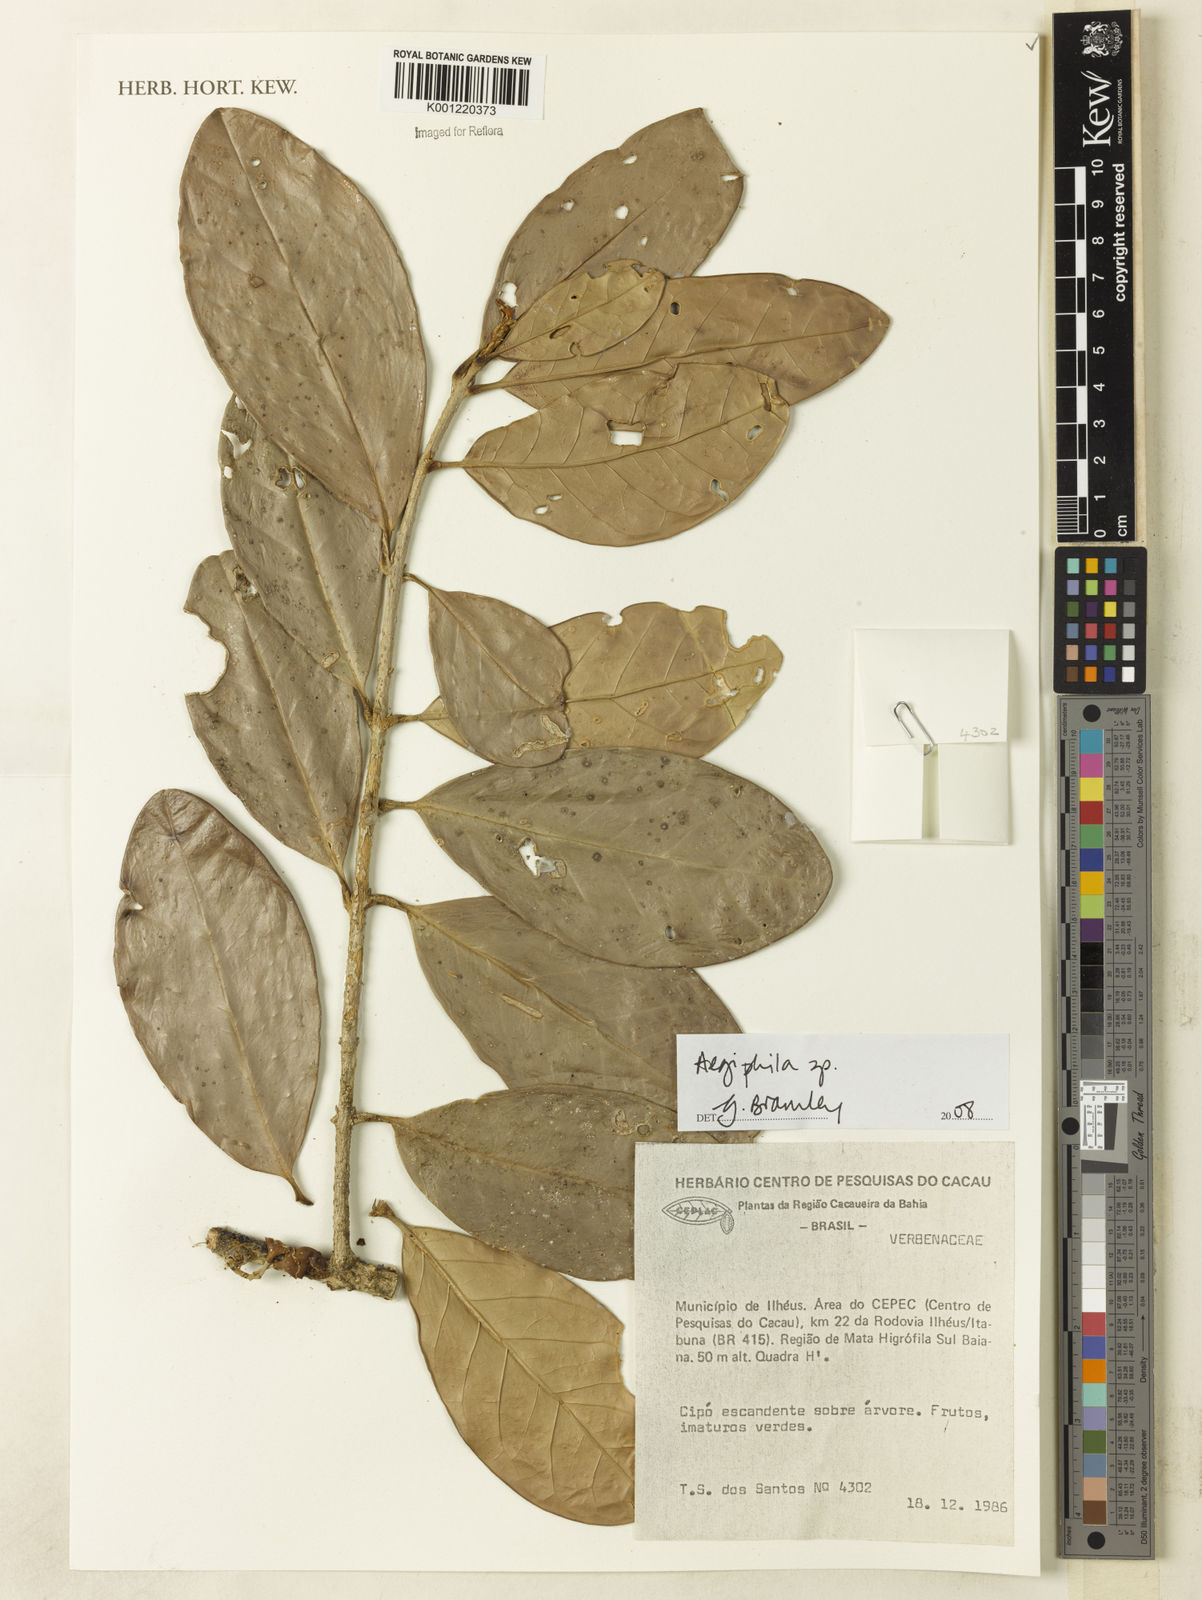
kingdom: Plantae
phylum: Tracheophyta
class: Magnoliopsida
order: Lamiales
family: Lamiaceae
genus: Aegiphila
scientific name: Aegiphila
